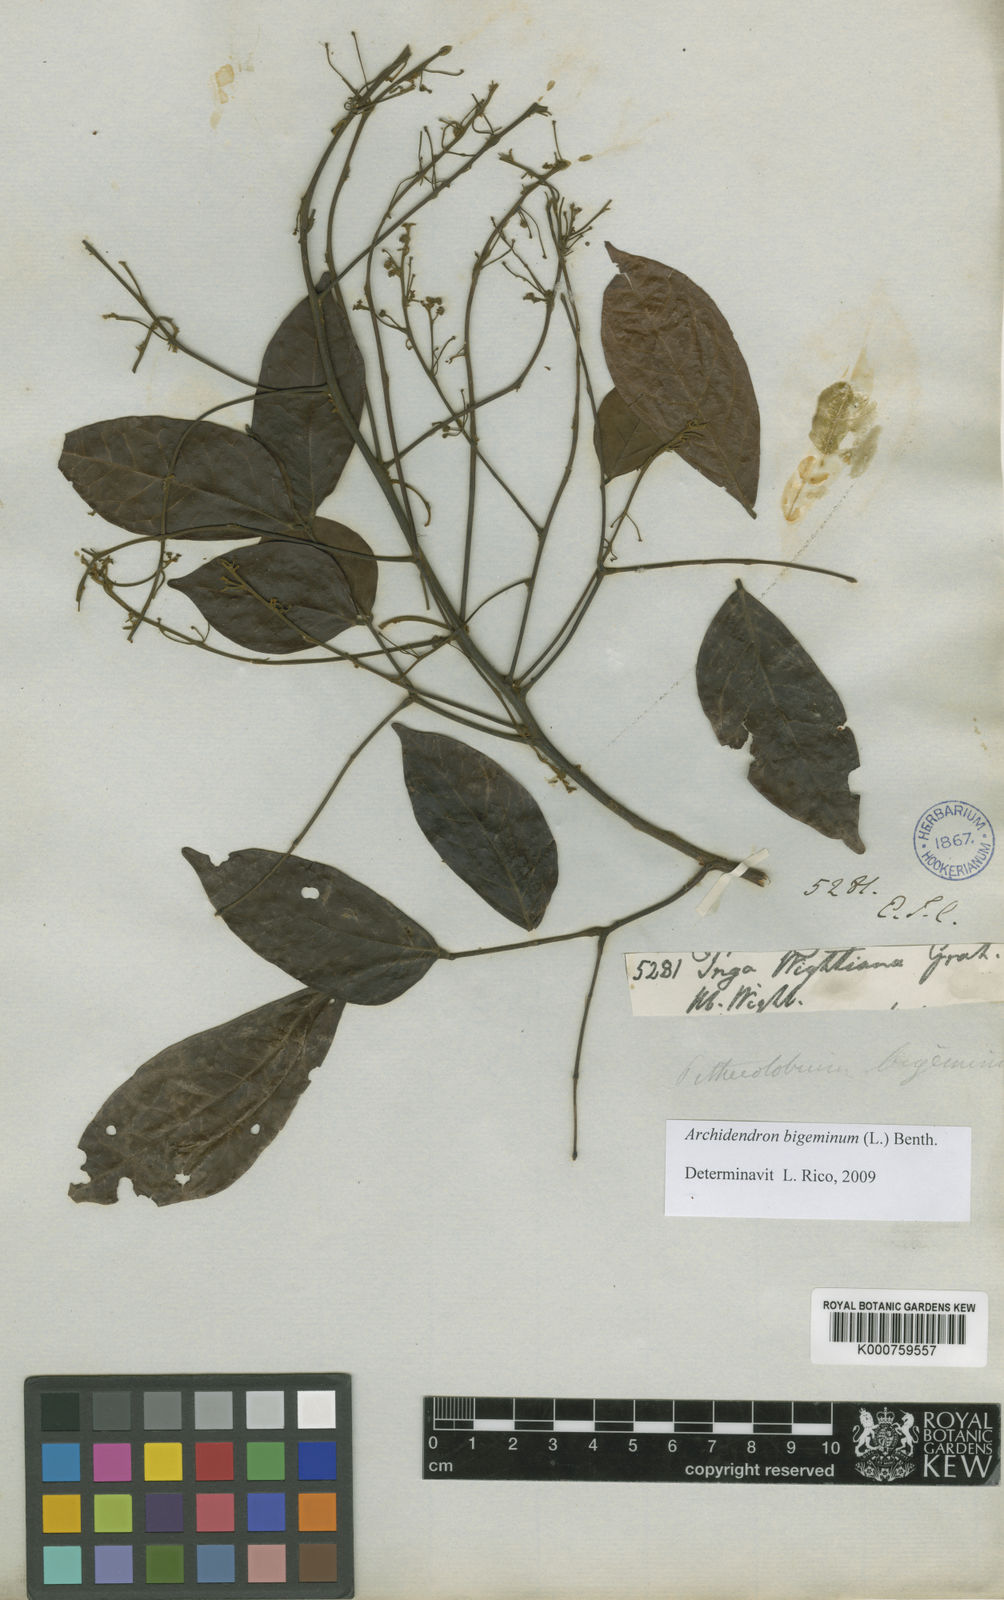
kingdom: Plantae
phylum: Tracheophyta
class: Magnoliopsida
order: Fabales
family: Fabaceae
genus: Archidendron
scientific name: Archidendron
